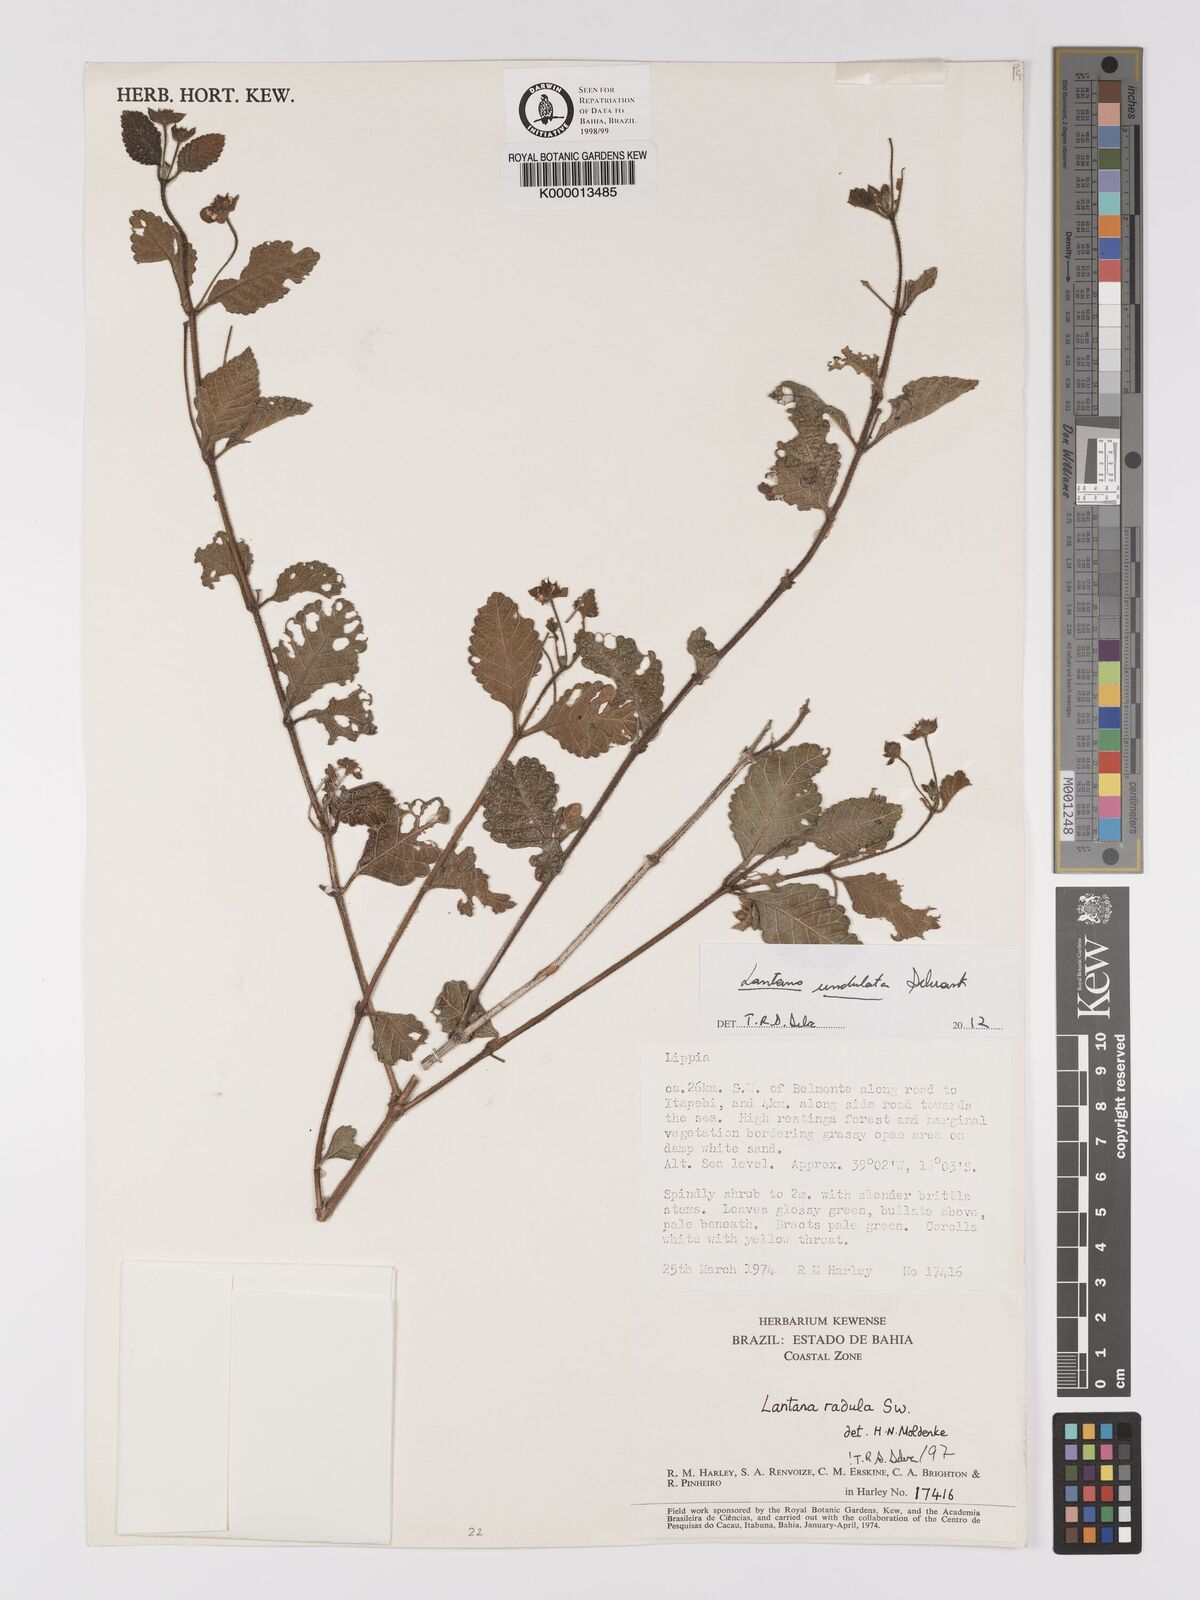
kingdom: Plantae
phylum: Tracheophyta
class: Magnoliopsida
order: Lamiales
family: Verbenaceae
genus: Lantana
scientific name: Lantana undulata
